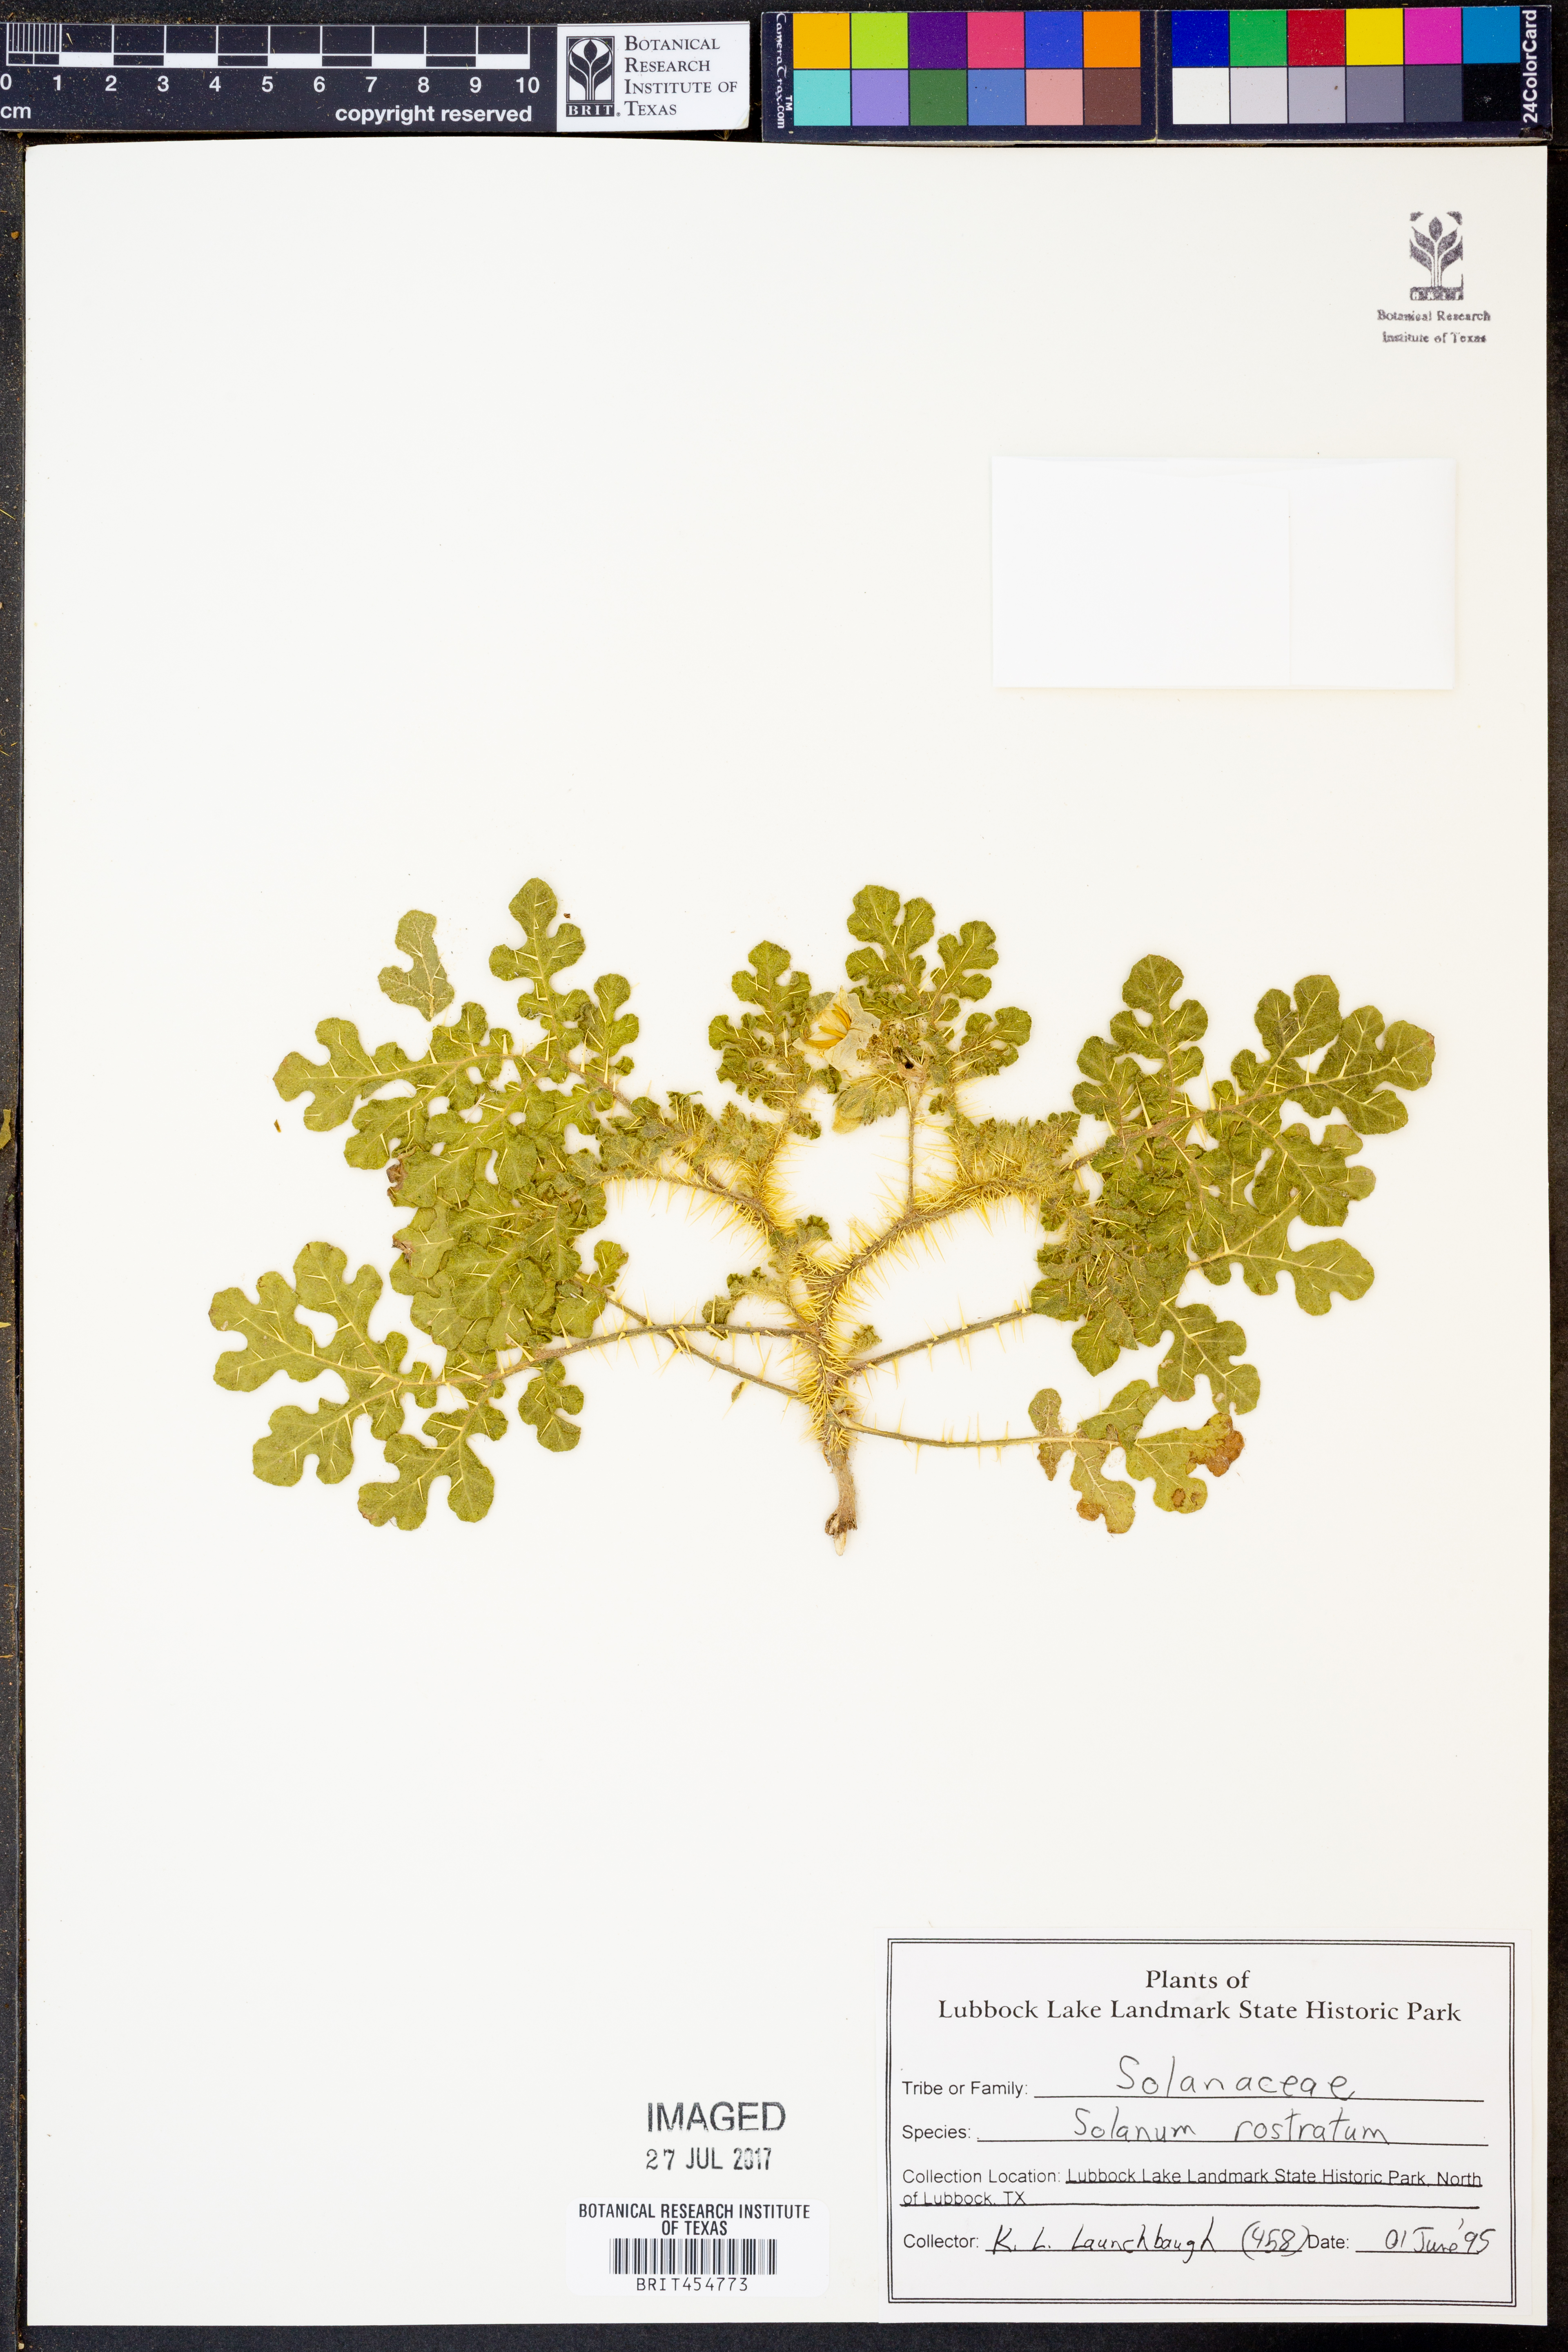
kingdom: Plantae
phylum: Tracheophyta
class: Magnoliopsida
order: Solanales
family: Solanaceae
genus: Solanum
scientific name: Solanum angustifolium
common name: Buffalobur nightshade
